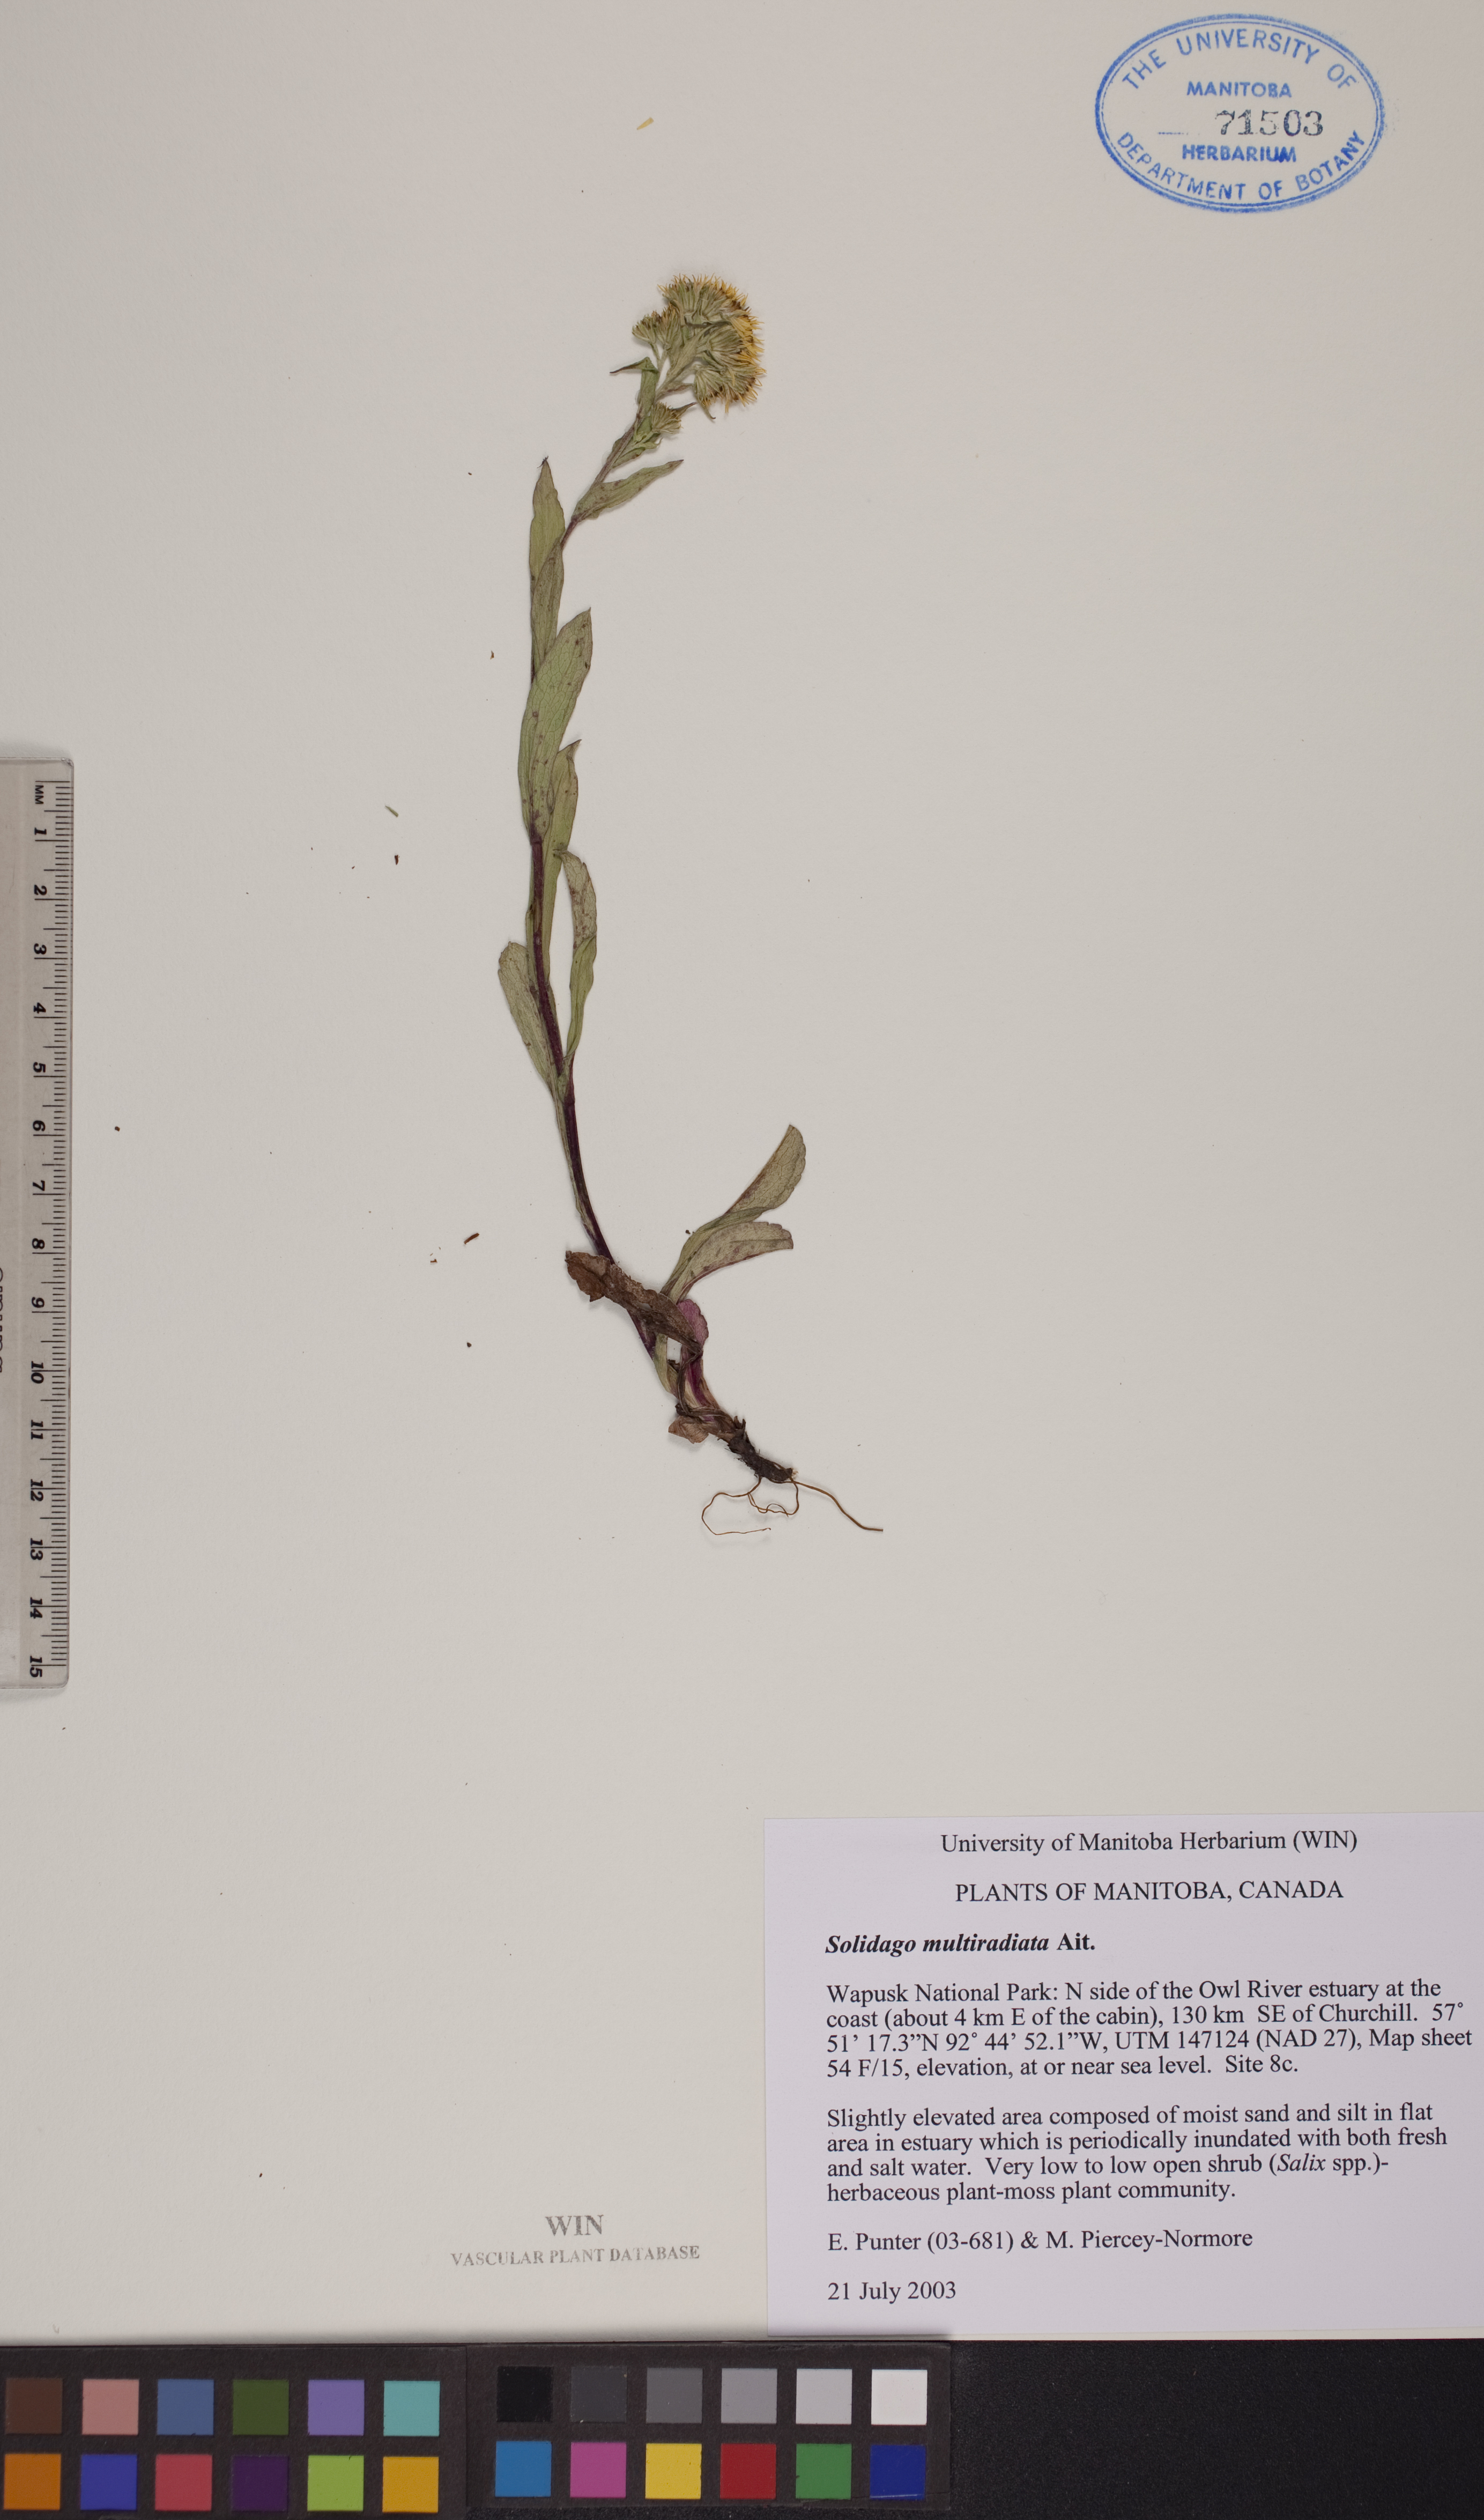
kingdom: Plantae
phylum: Tracheophyta
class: Magnoliopsida
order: Asterales
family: Asteraceae
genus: Solidago
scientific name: Solidago multiradiata
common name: Northern goldenrod
